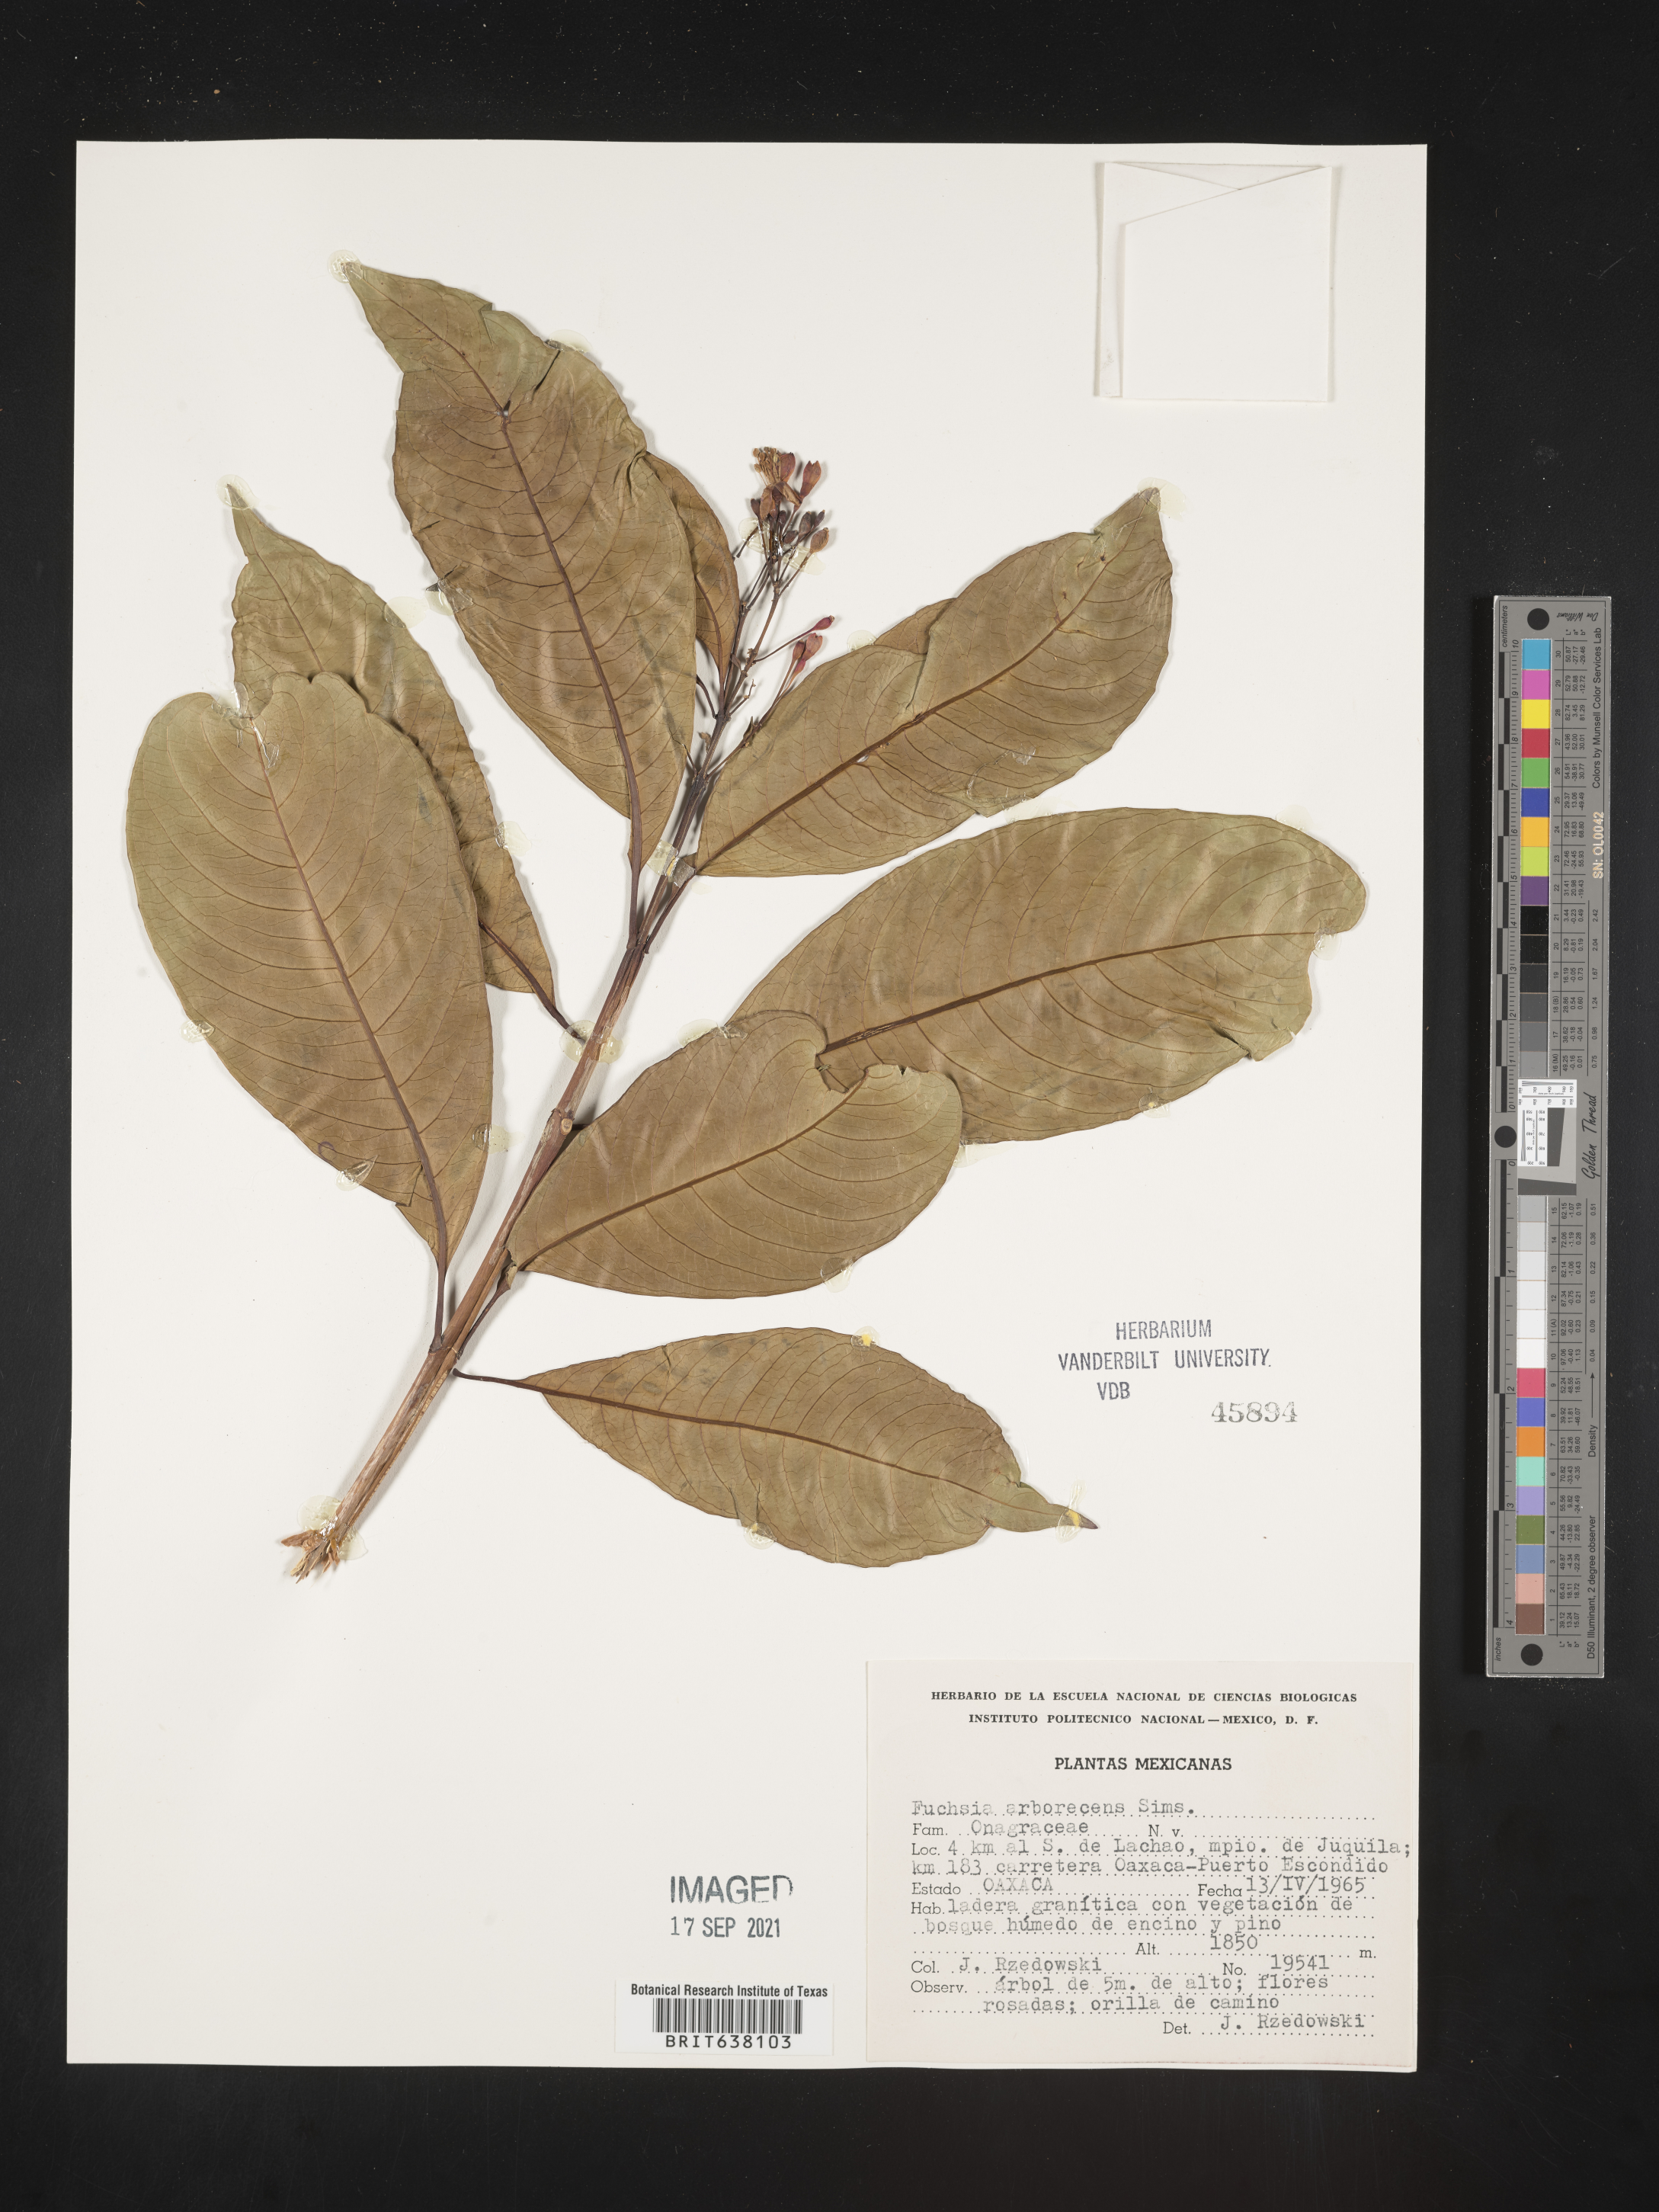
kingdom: Plantae
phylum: Tracheophyta
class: Magnoliopsida
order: Myrtales
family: Onagraceae
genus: Fuchsia
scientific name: Fuchsia
